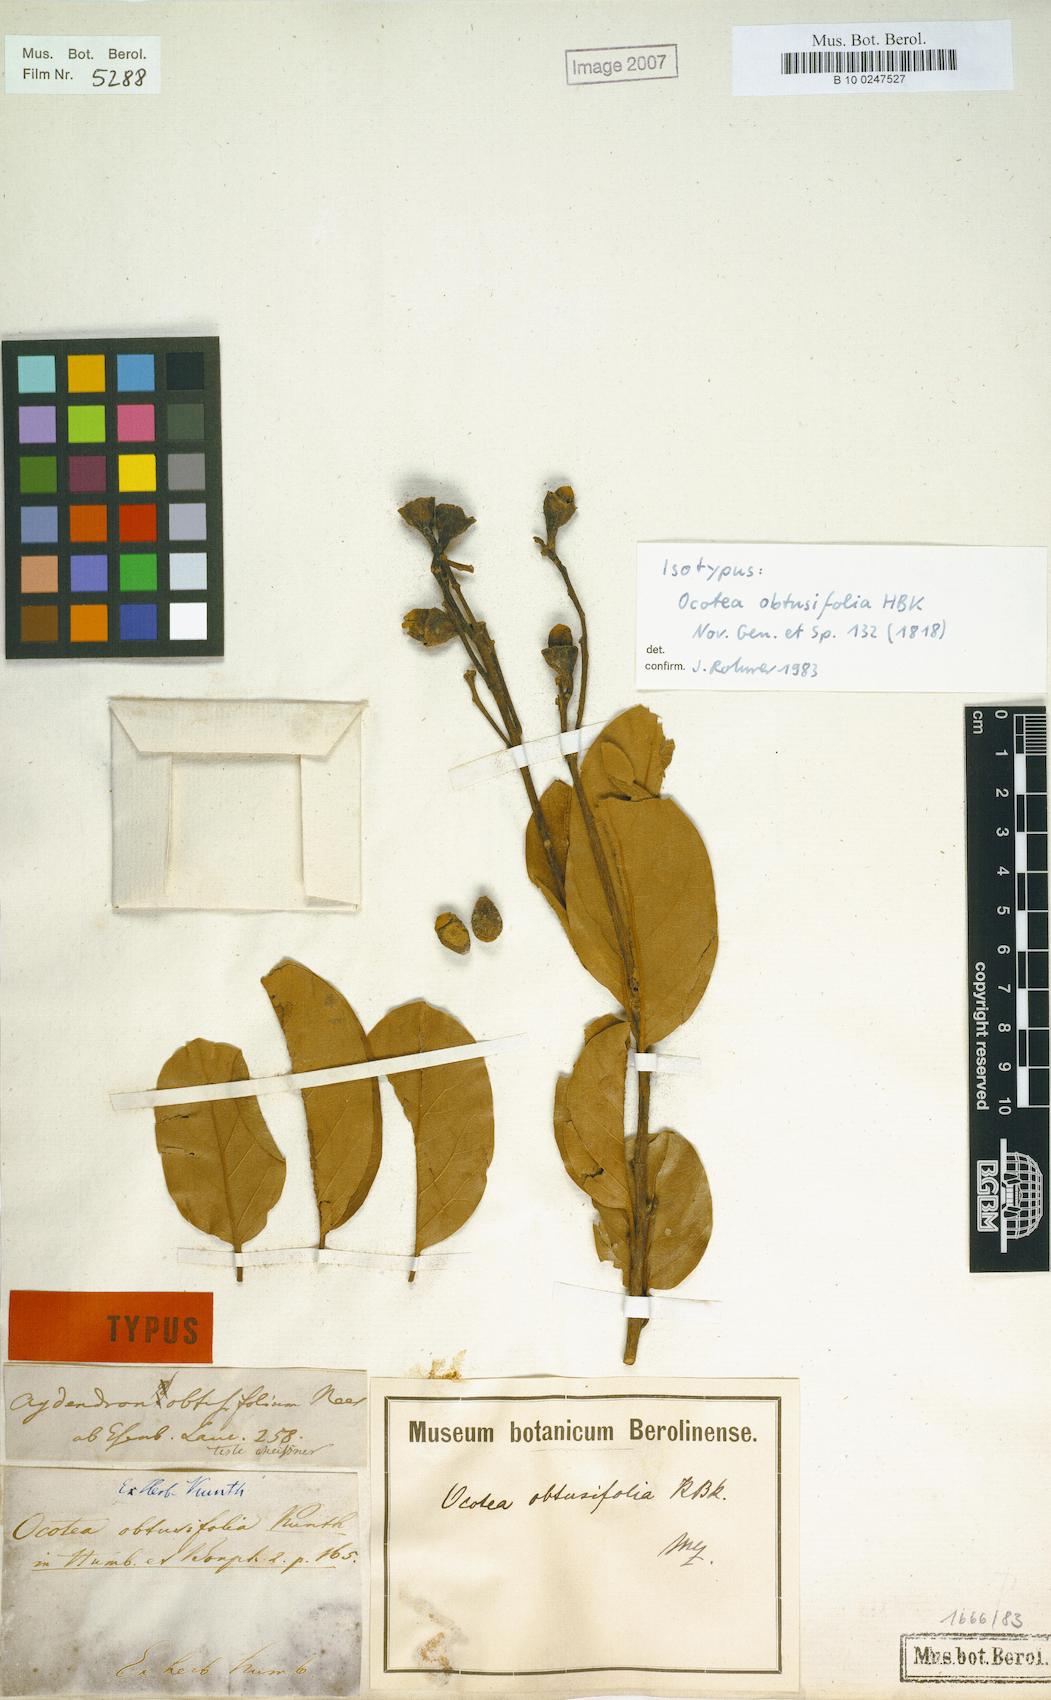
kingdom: Plantae
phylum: Tracheophyta
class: Magnoliopsida
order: Laurales
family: Lauraceae
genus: Ocotea
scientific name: Ocotea obtusifolia
